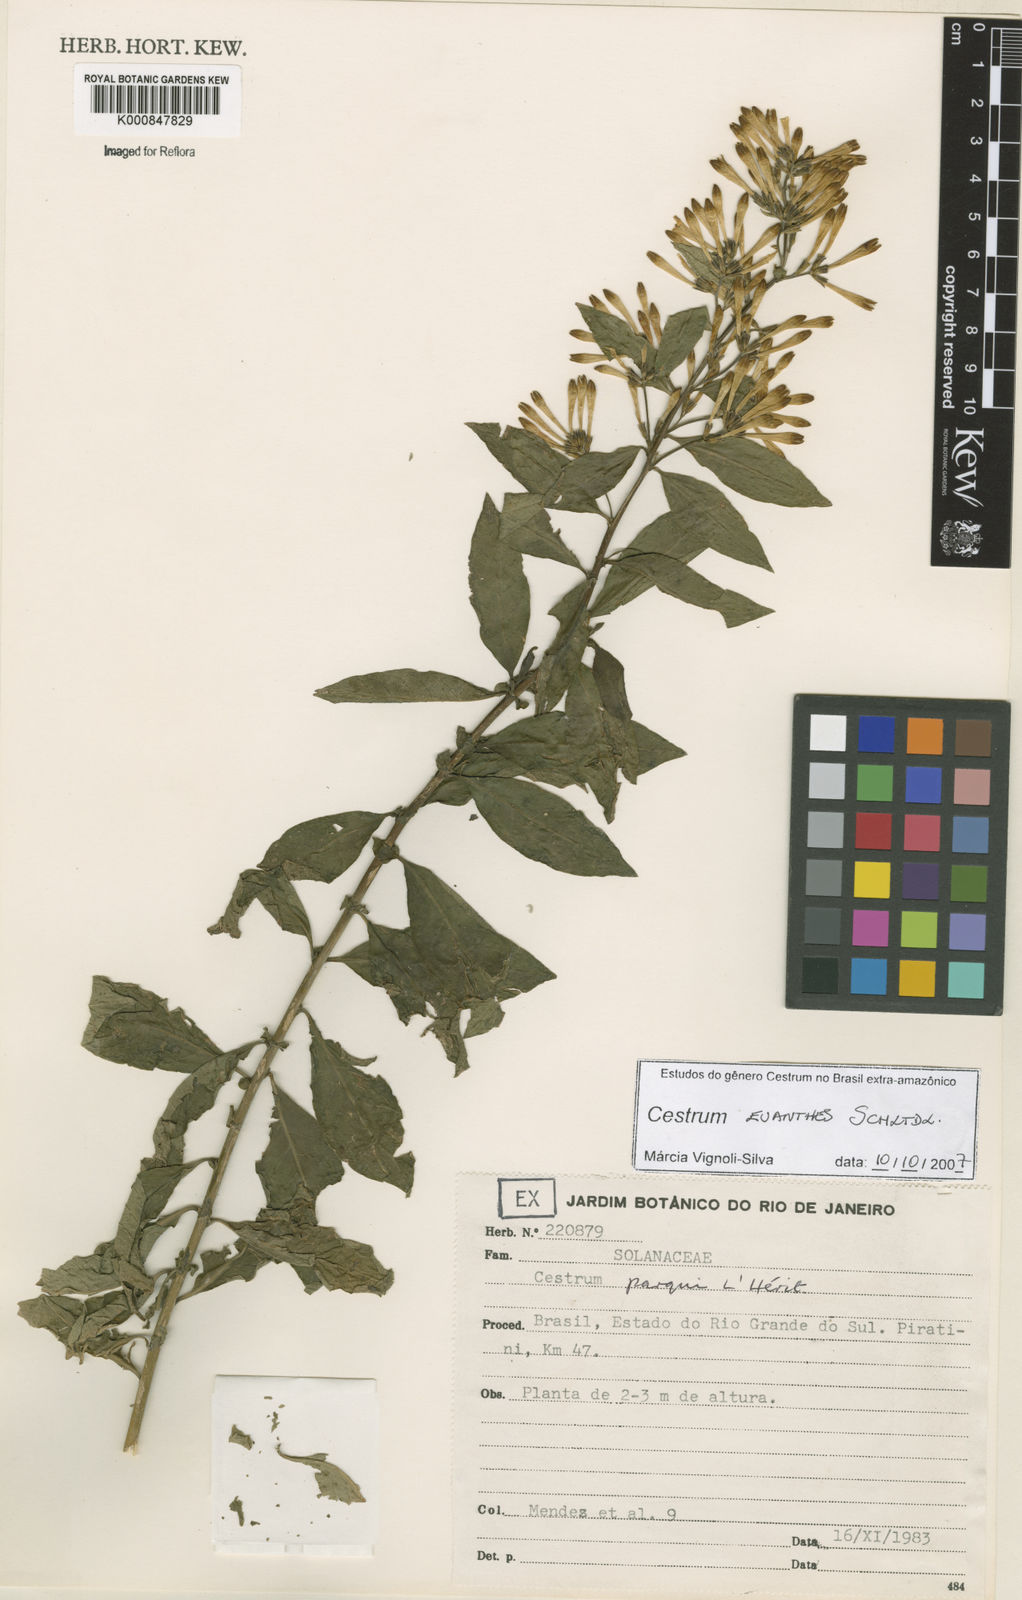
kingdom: Plantae
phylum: Tracheophyta
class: Magnoliopsida
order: Solanales
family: Solanaceae
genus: Cestrum
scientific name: Cestrum euanthes
